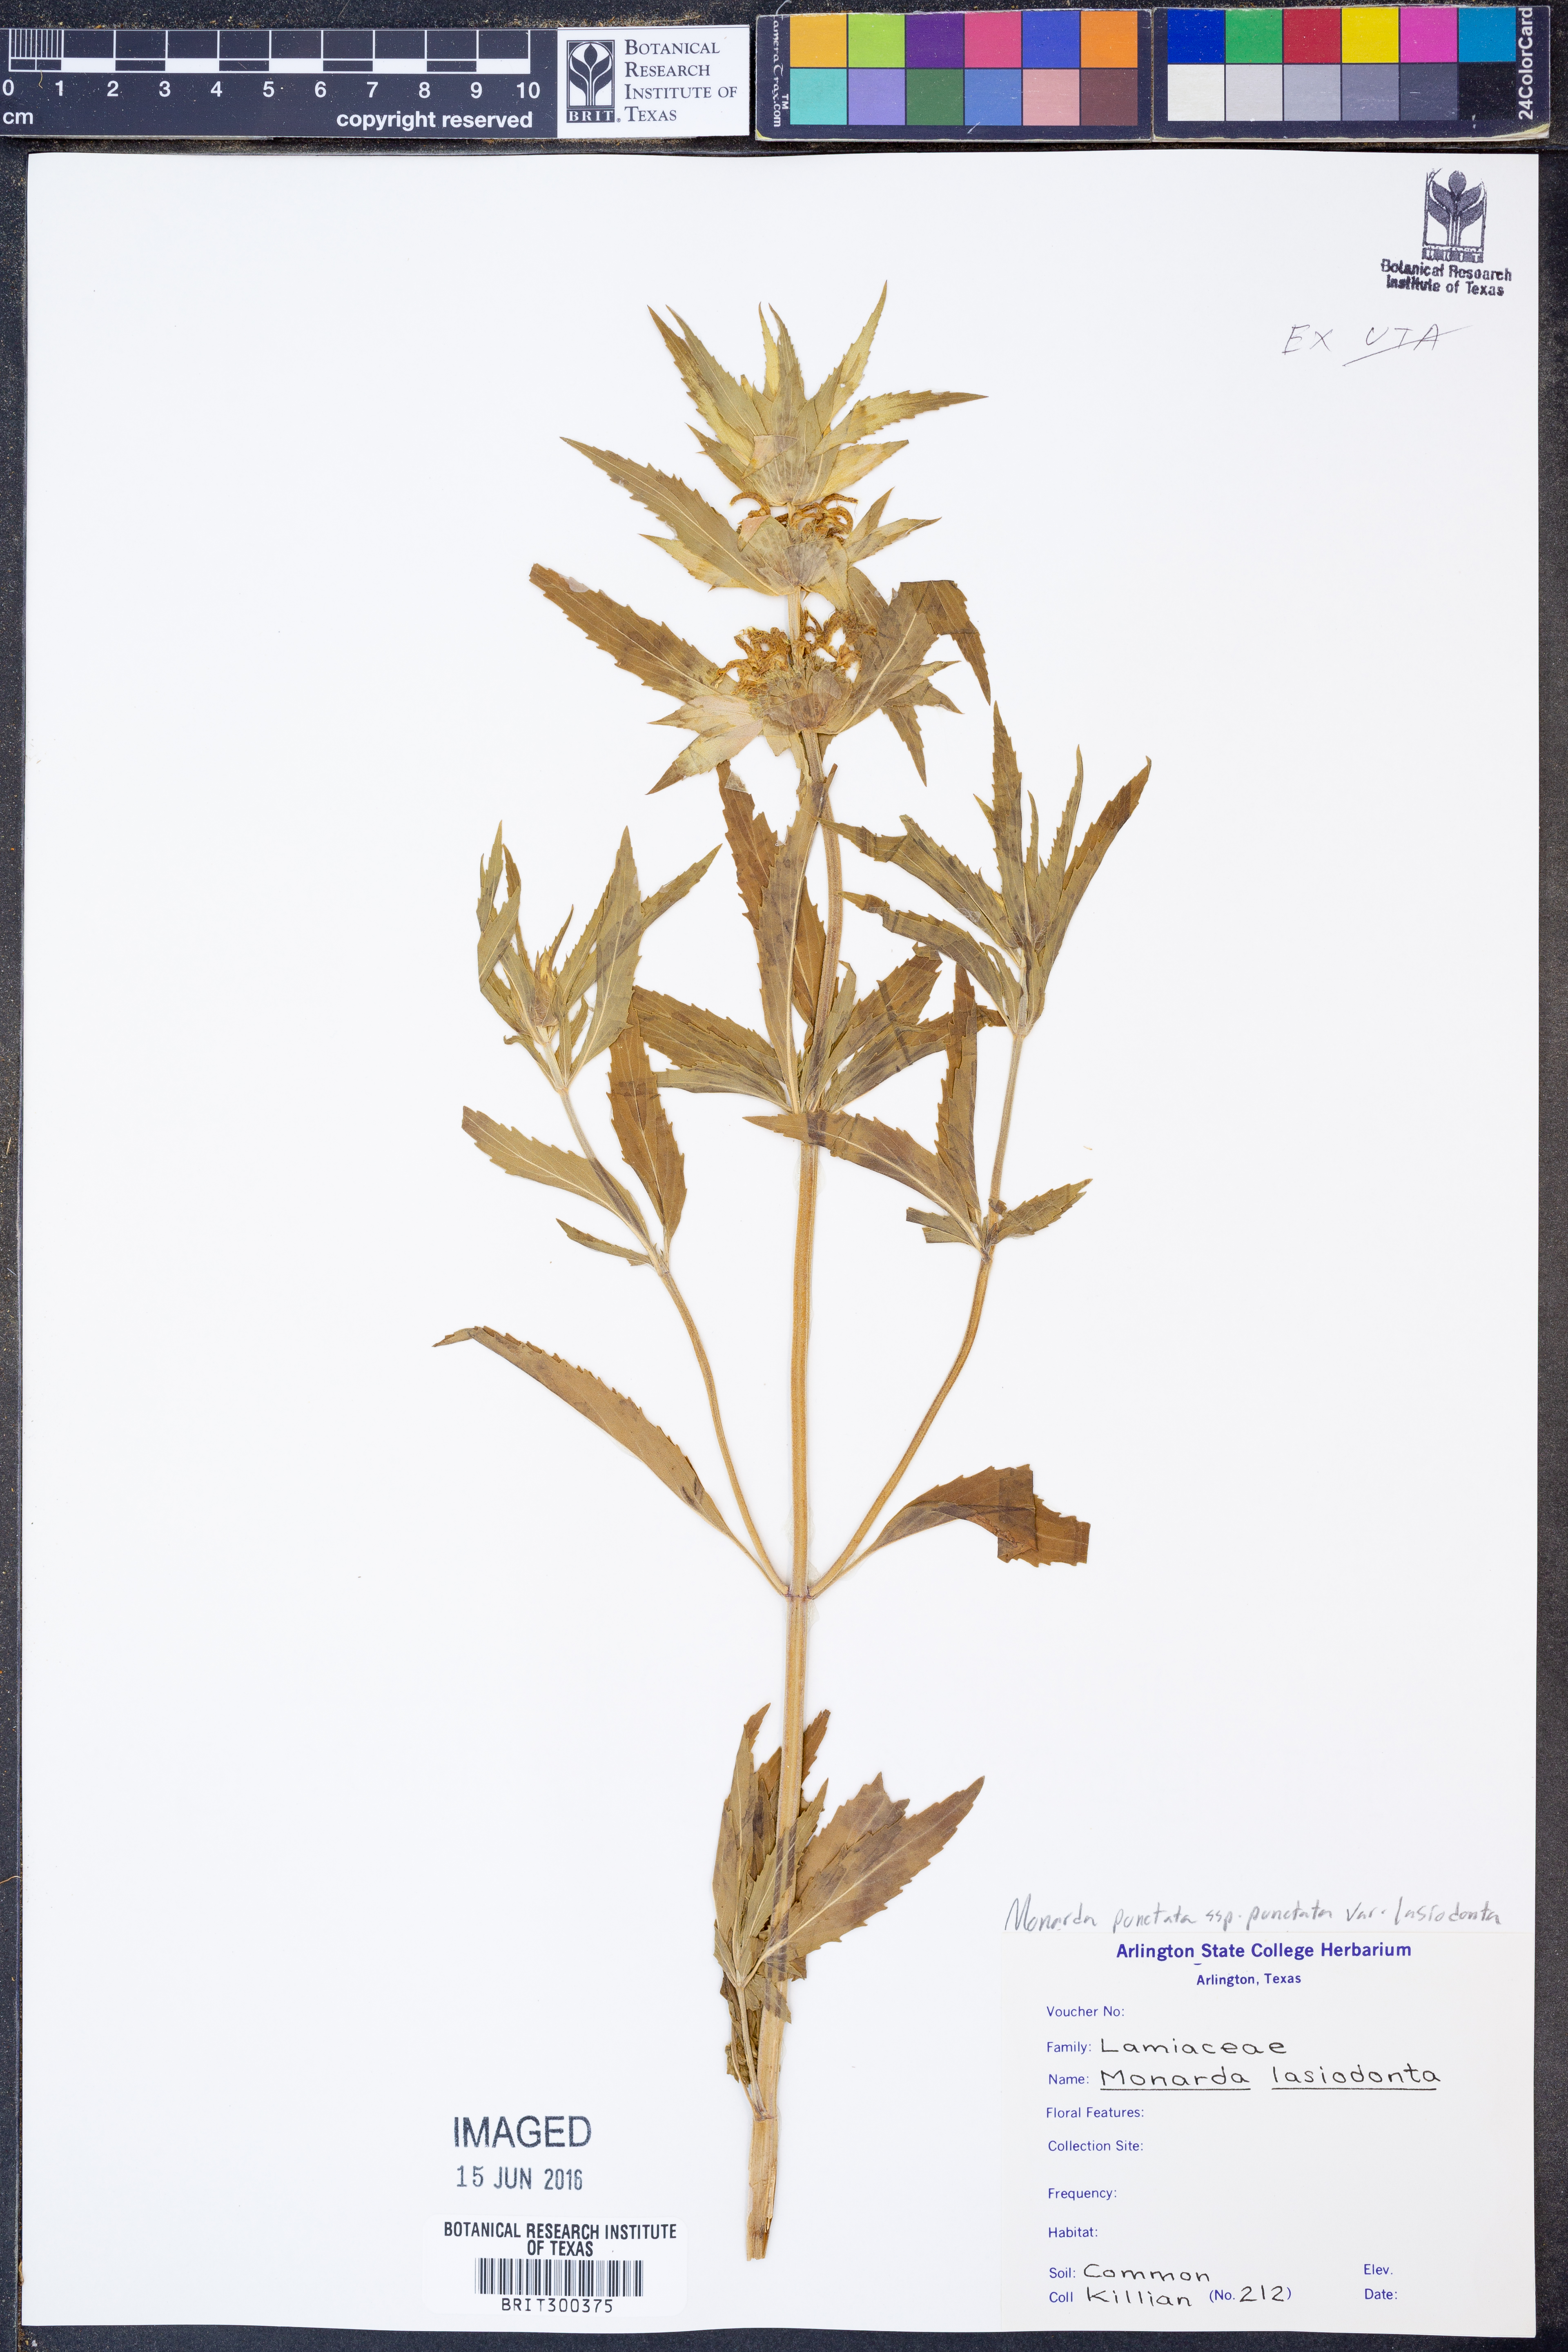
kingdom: Plantae
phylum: Tracheophyta
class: Magnoliopsida
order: Lamiales
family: Lamiaceae
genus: Monarda
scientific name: Monarda punctata
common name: Dotted monarda
